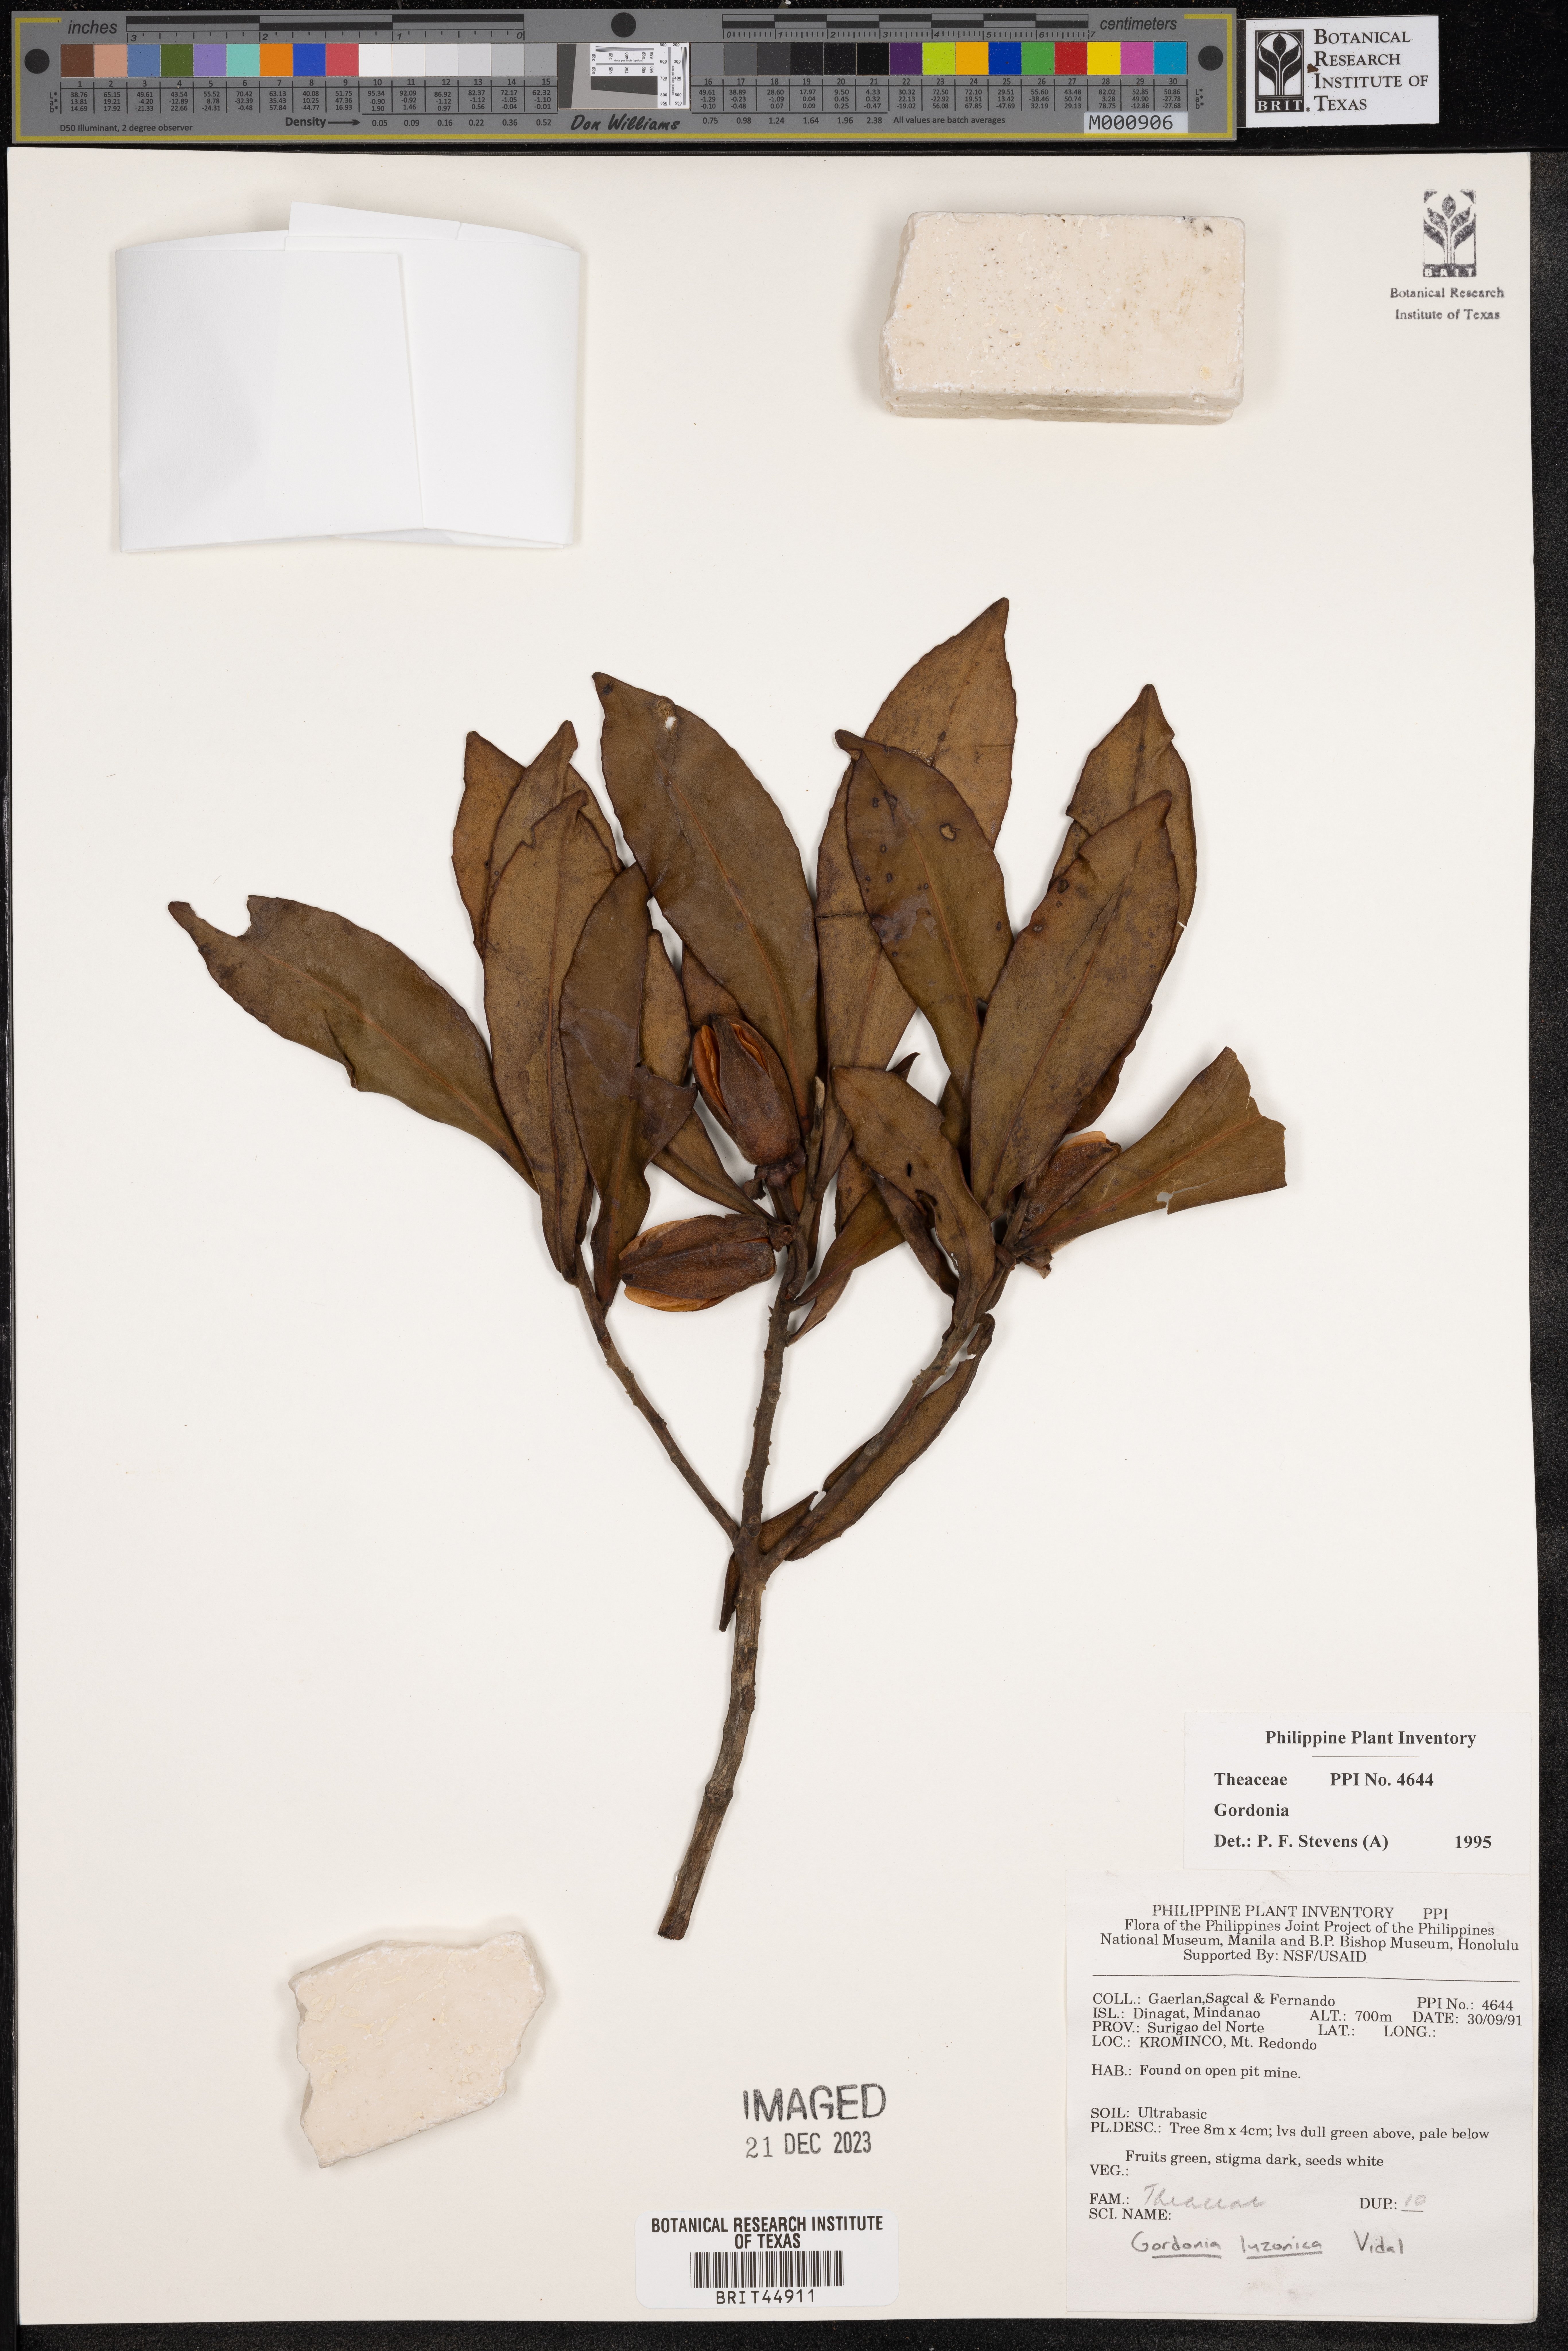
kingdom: Plantae
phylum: Tracheophyta
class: Magnoliopsida
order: Ericales
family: Theaceae
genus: Gordonia
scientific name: Gordonia
